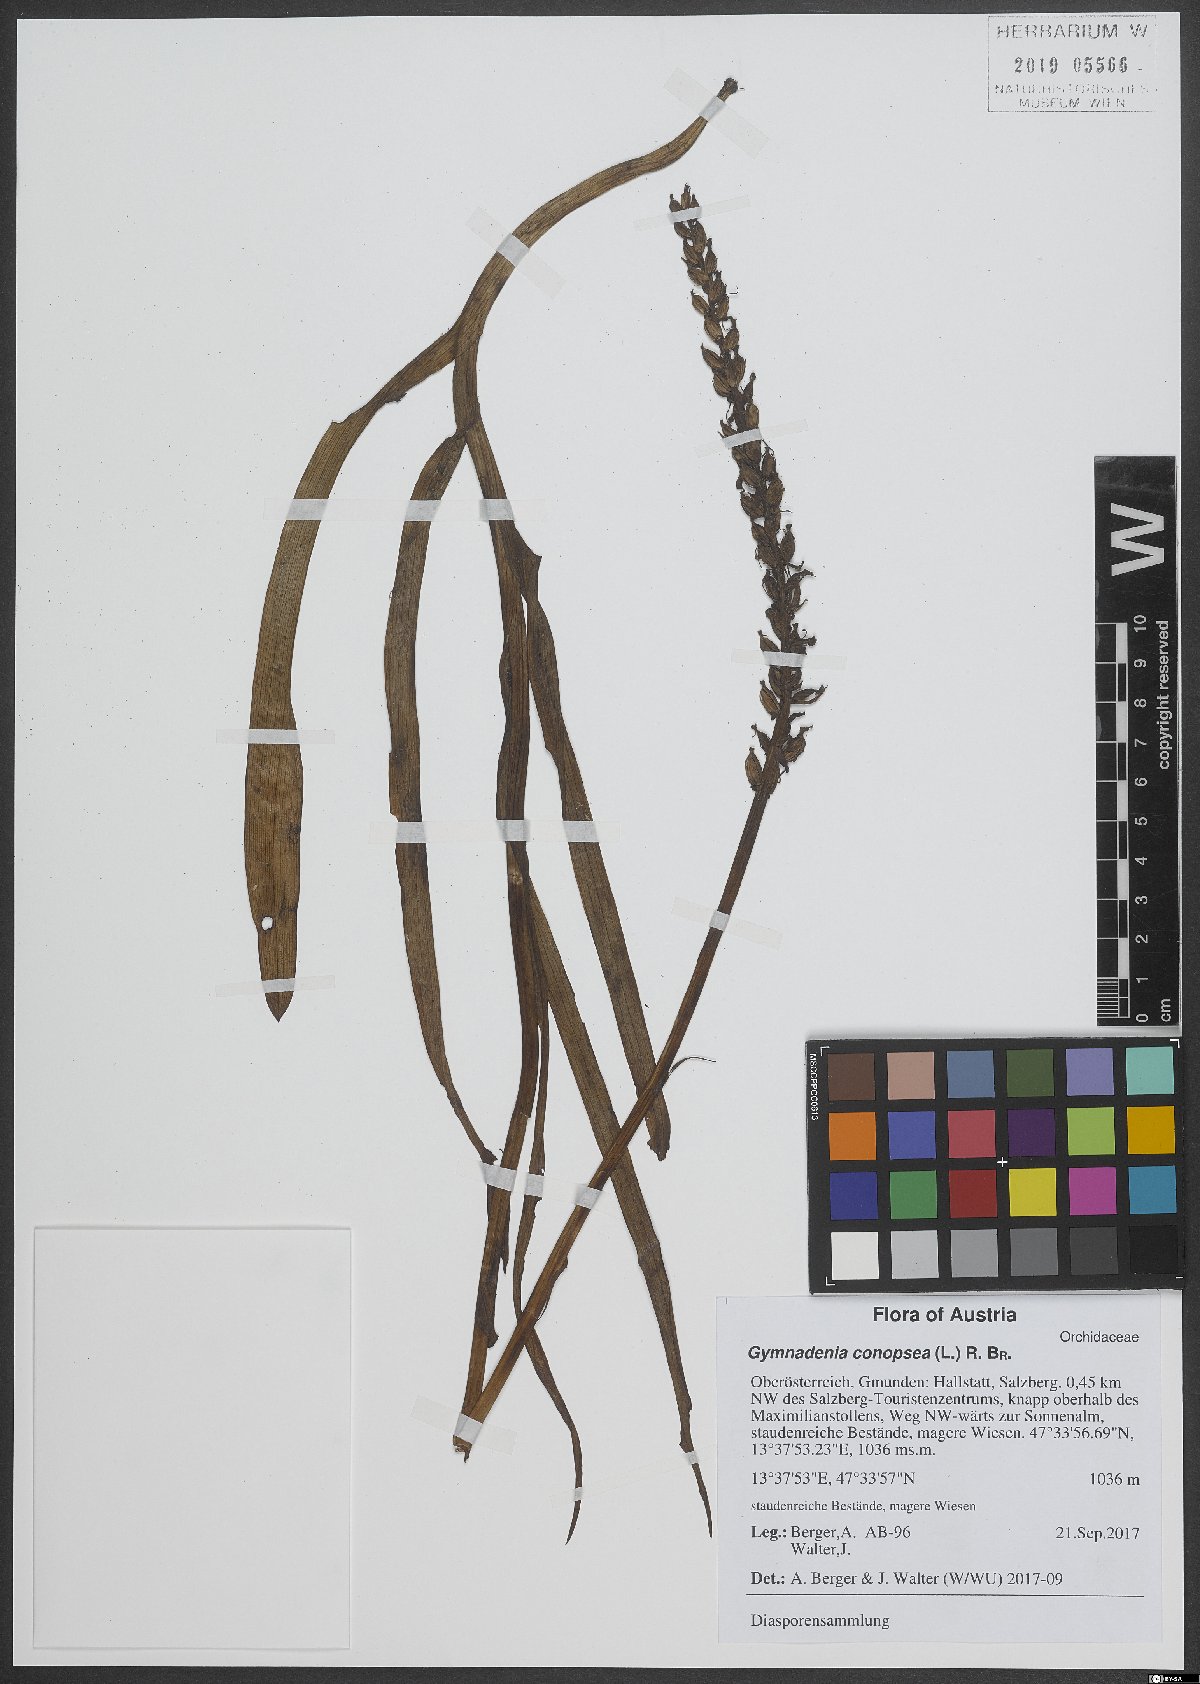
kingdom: Plantae
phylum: Tracheophyta
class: Liliopsida
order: Asparagales
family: Orchidaceae
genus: Gymnadenia
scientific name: Gymnadenia conopsea
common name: Fragrant orchid
